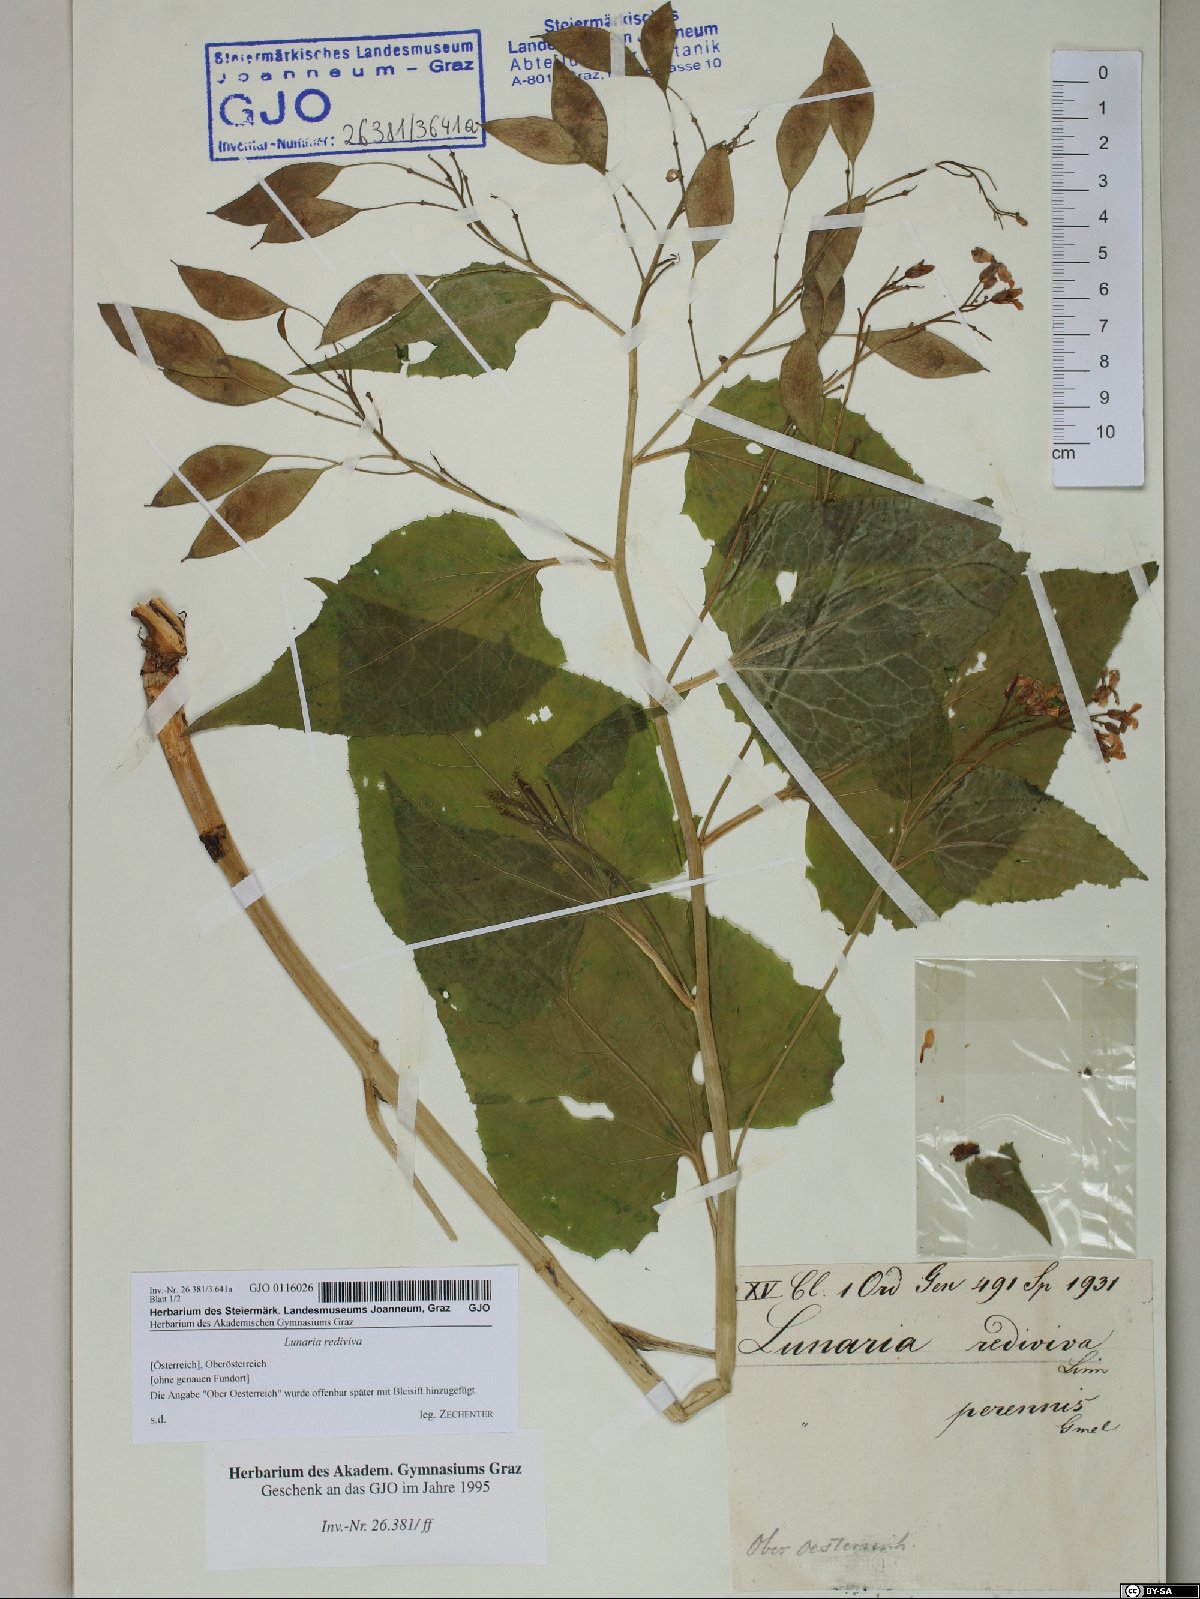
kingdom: Plantae
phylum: Tracheophyta
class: Magnoliopsida
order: Brassicales
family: Brassicaceae
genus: Lunaria
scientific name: Lunaria rediviva
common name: Perennial honesty
